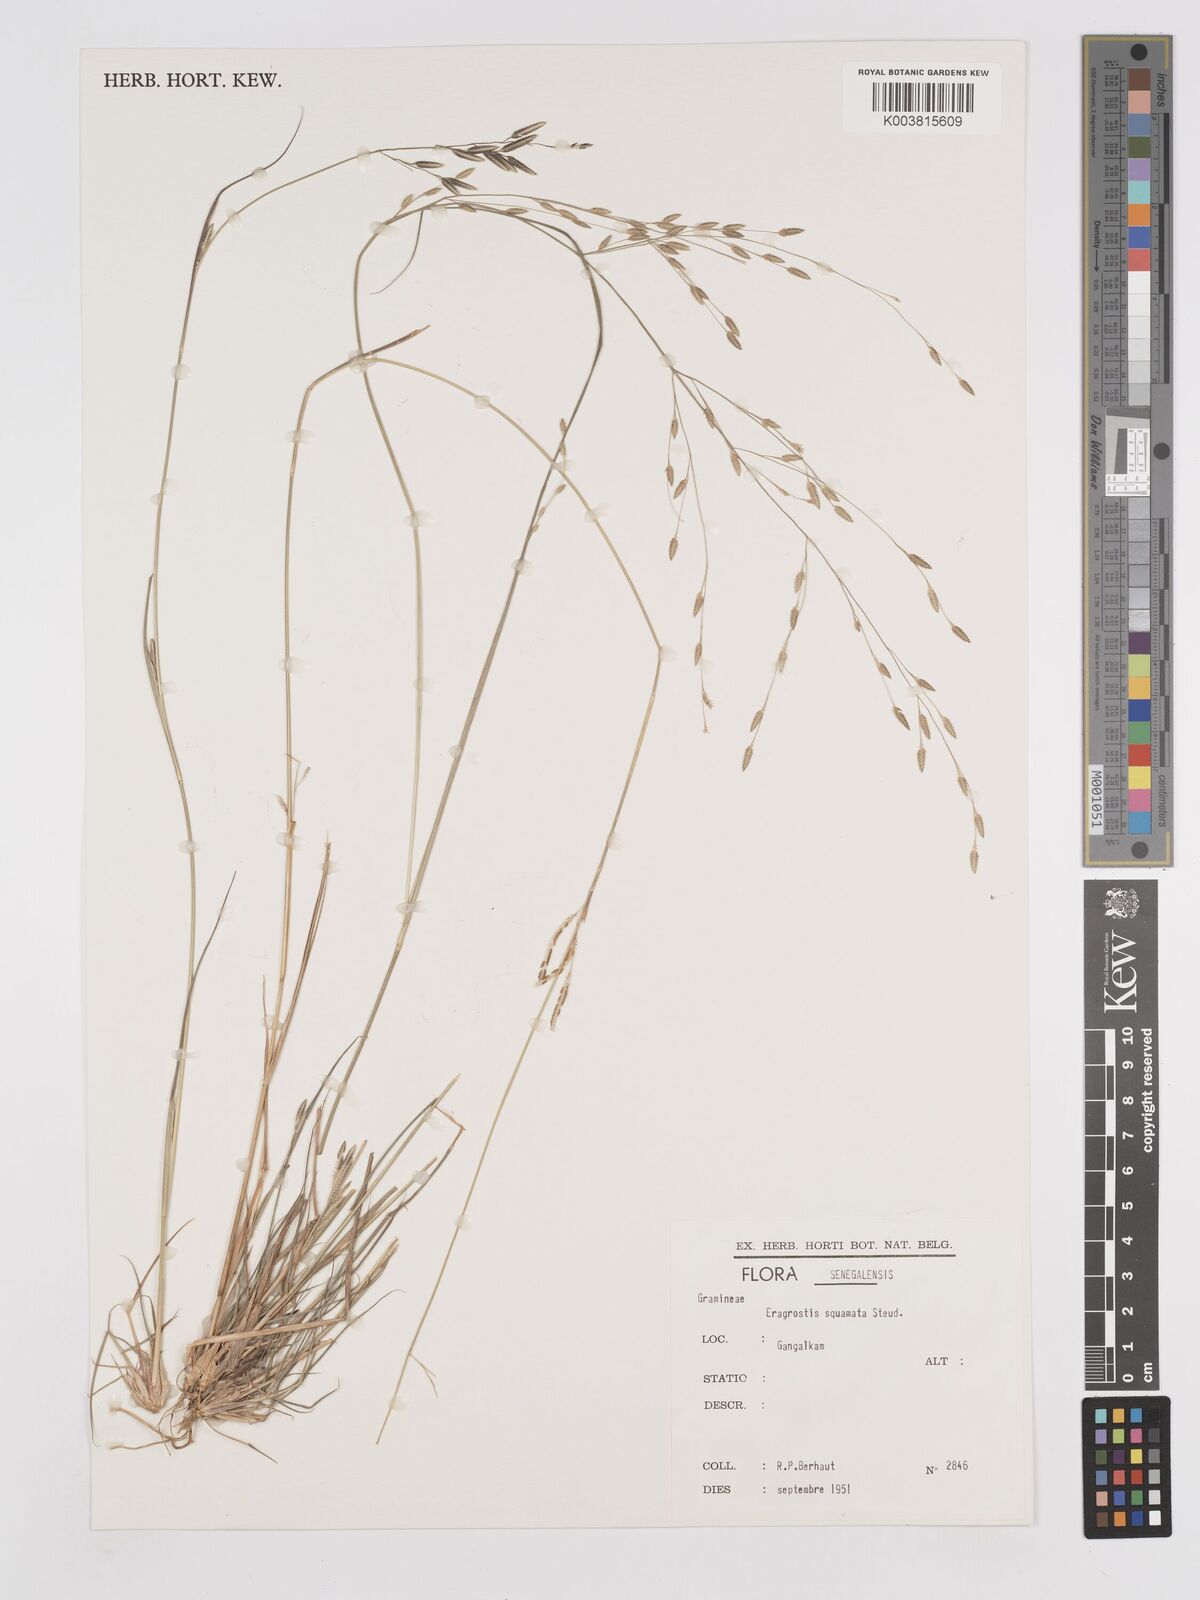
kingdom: Plantae
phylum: Tracheophyta
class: Liliopsida
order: Poales
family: Poaceae
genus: Eragrostis
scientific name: Eragrostis squamata
